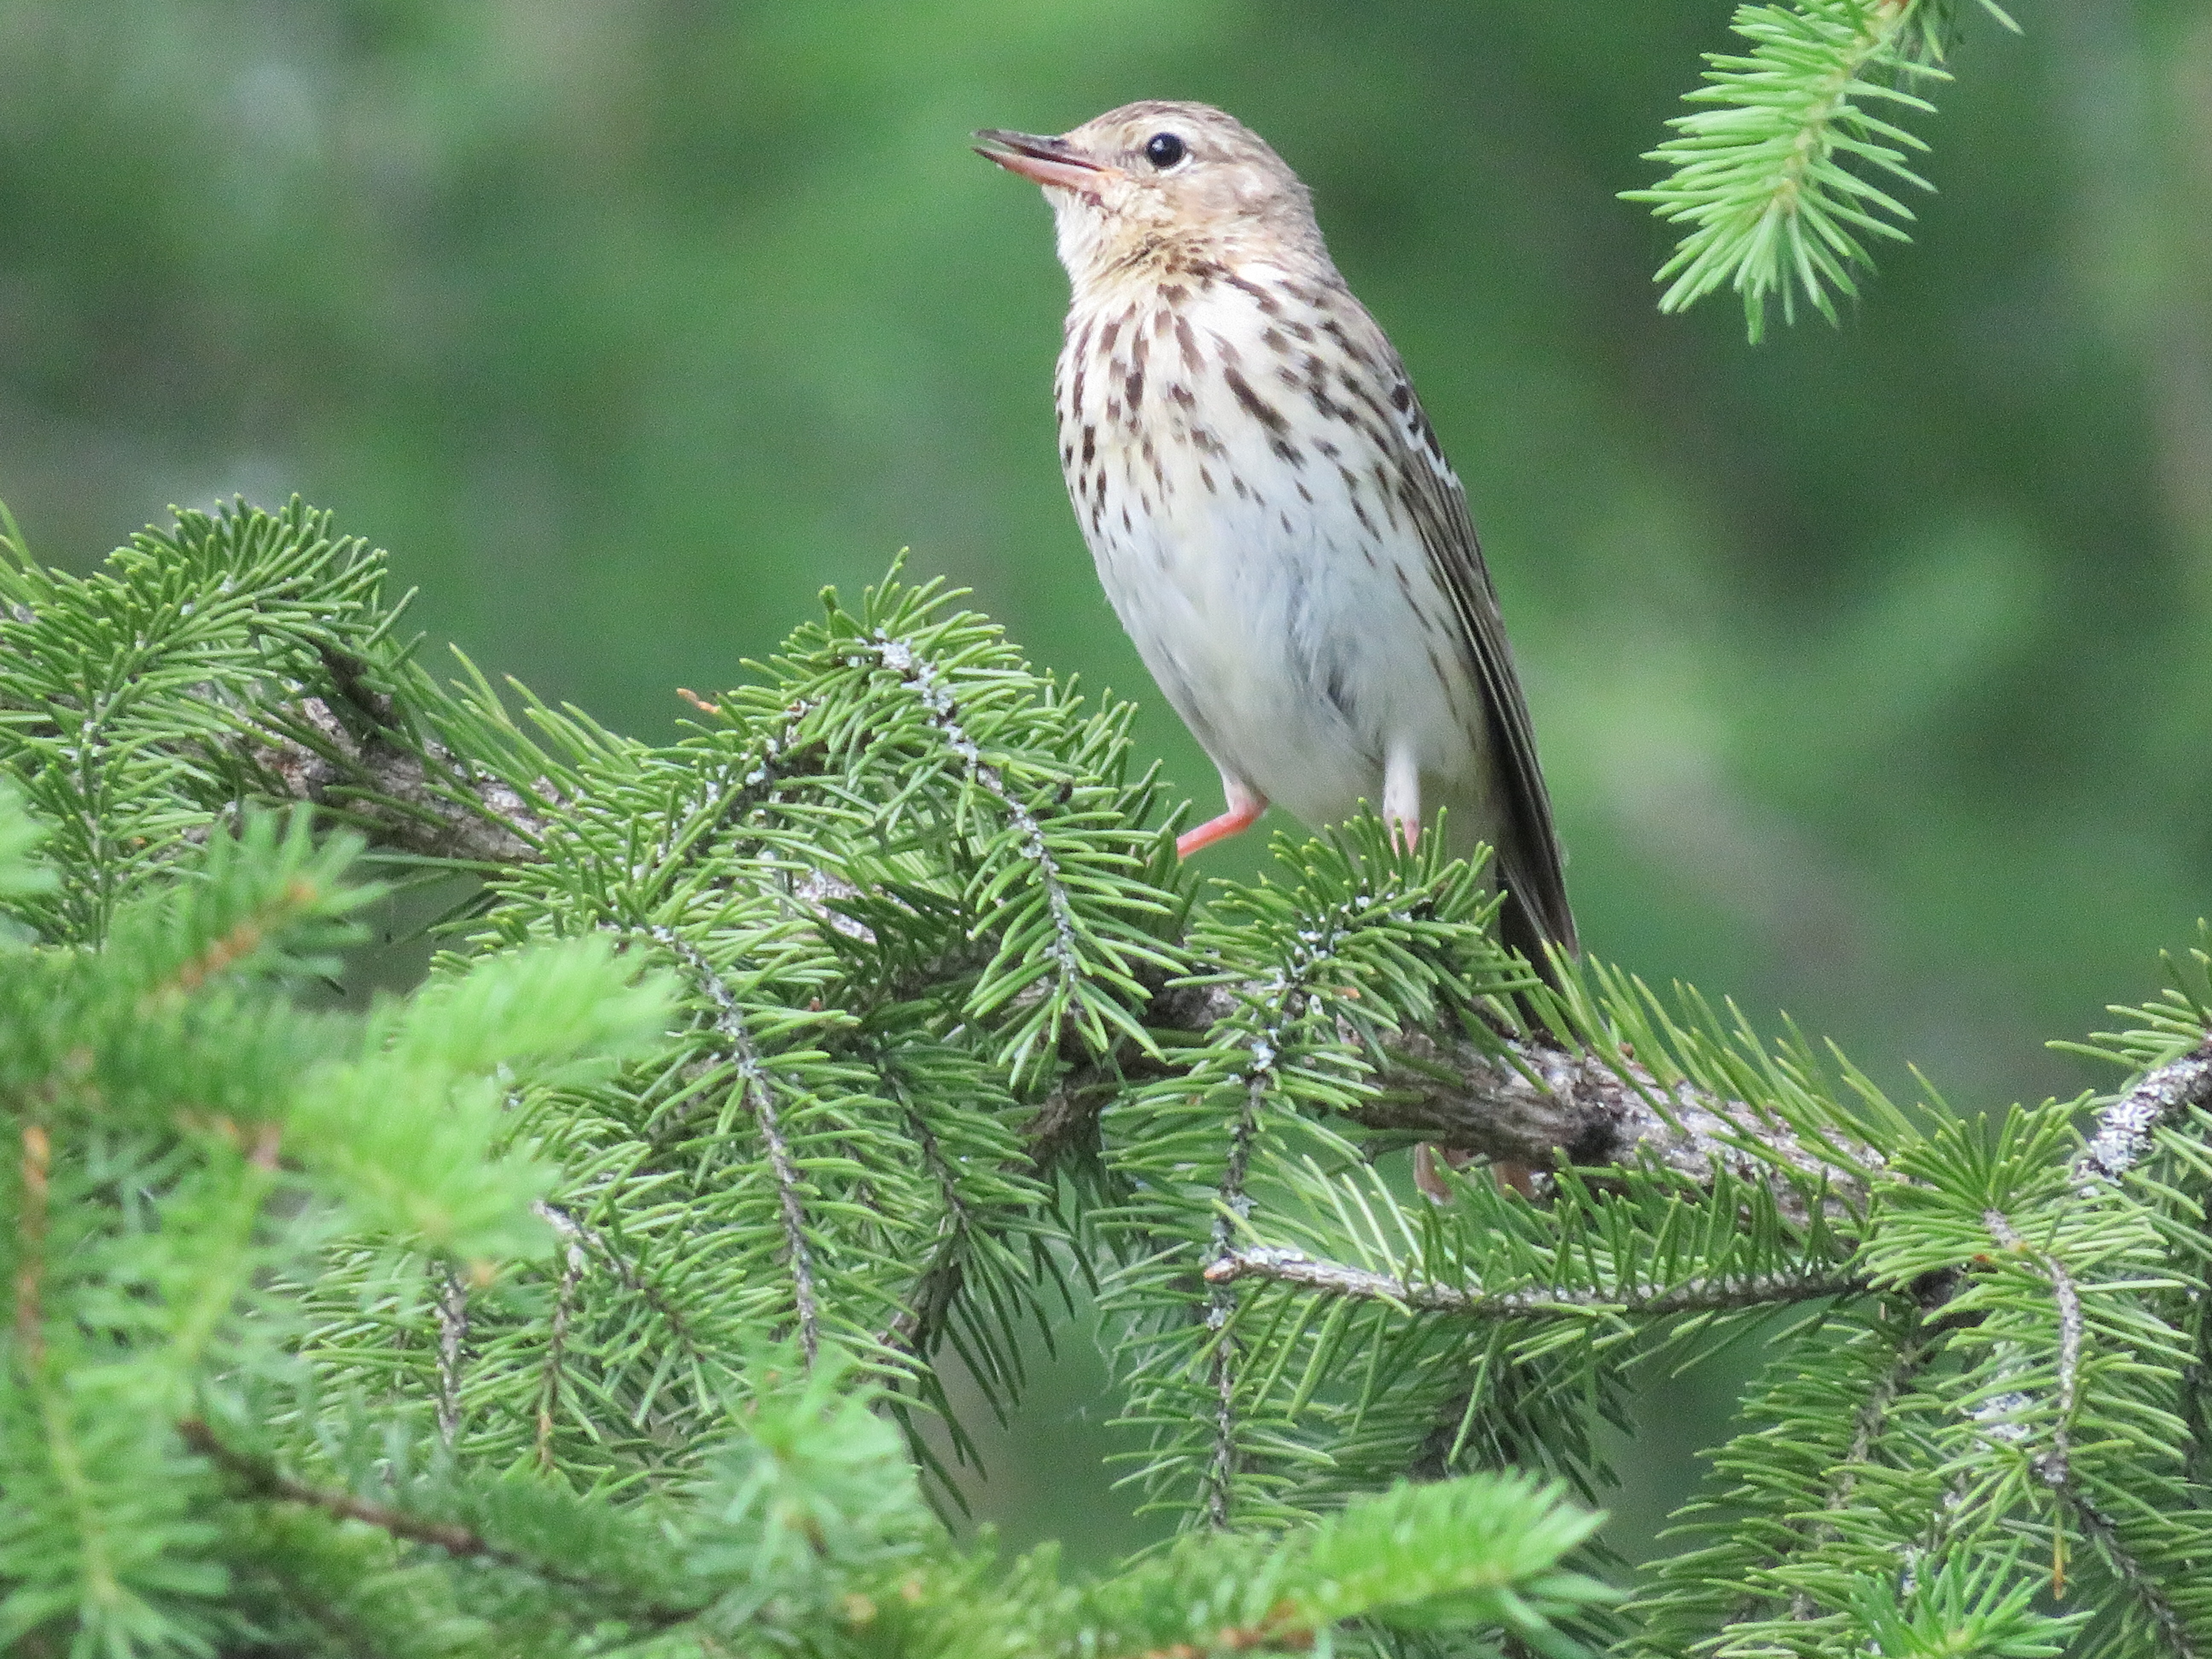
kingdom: Animalia
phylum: Chordata
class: Aves
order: Passeriformes
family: Motacillidae
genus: Anthus
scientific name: Anthus trivialis
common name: Tree pipit
